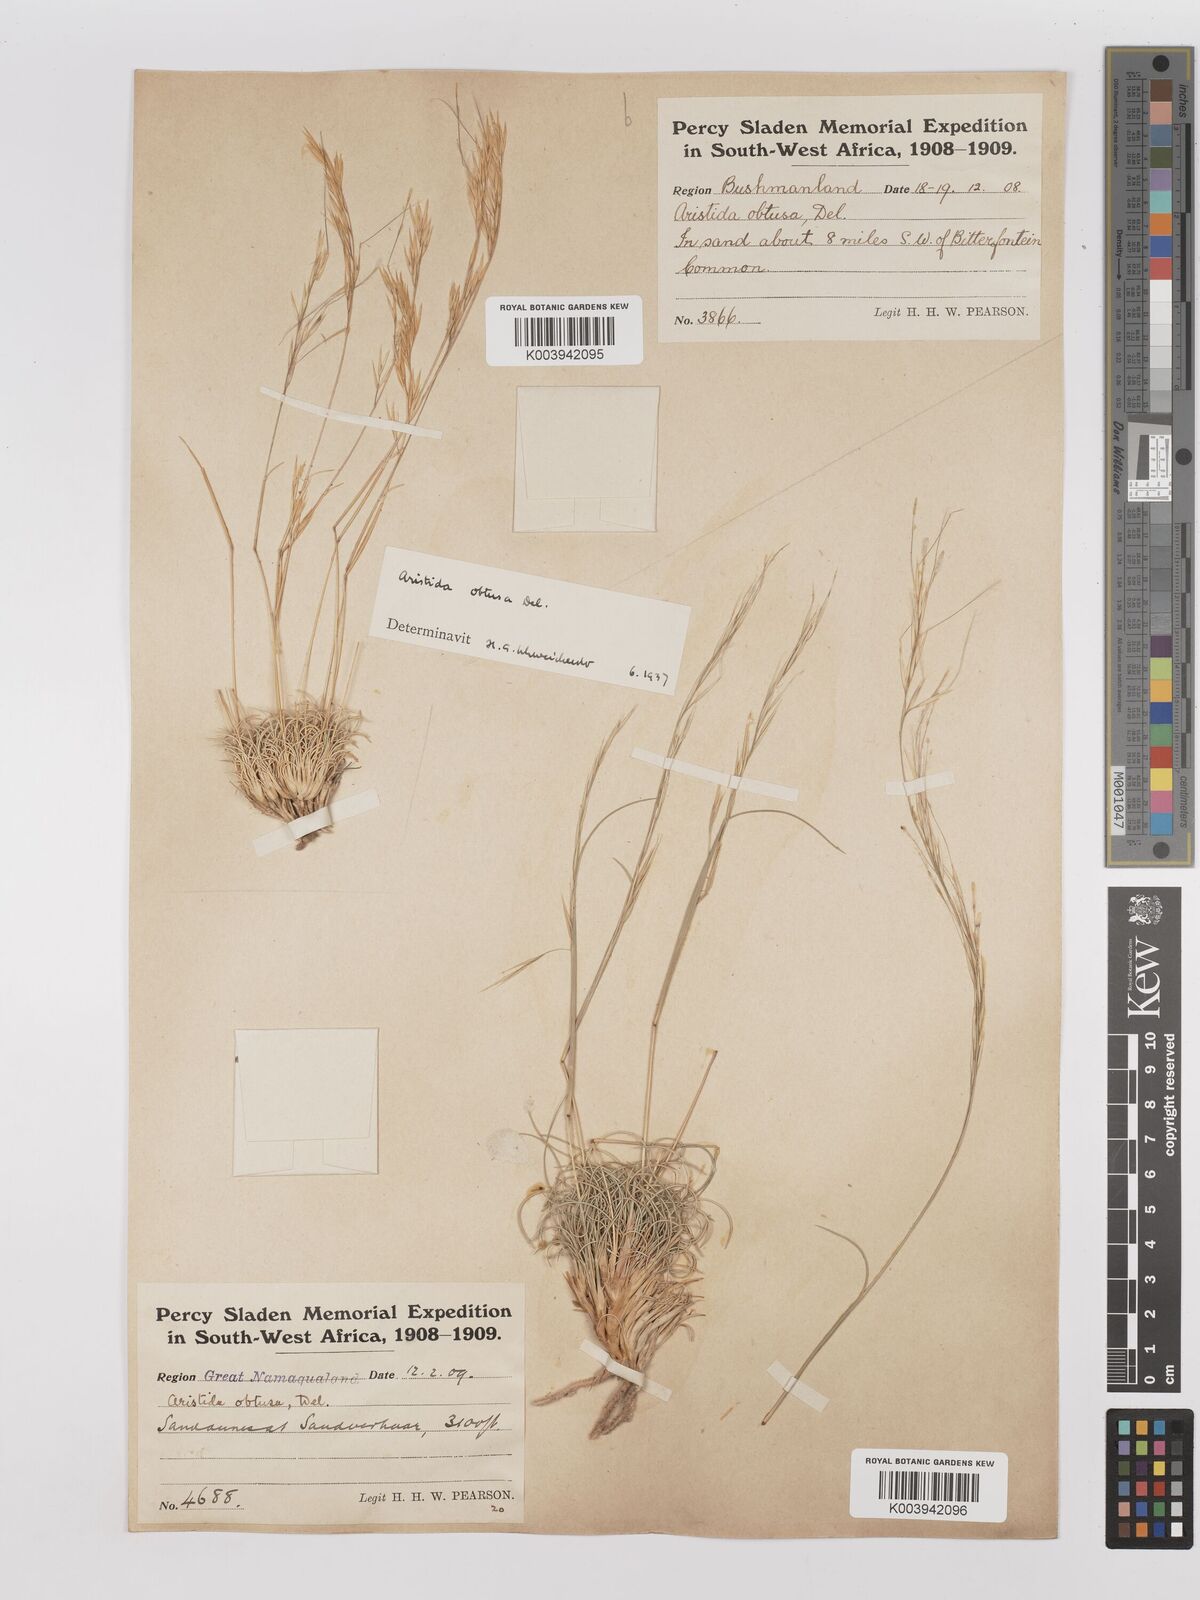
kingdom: Plantae
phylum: Tracheophyta
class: Liliopsida
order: Poales
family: Poaceae
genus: Stipagrostis
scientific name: Stipagrostis obtusa
